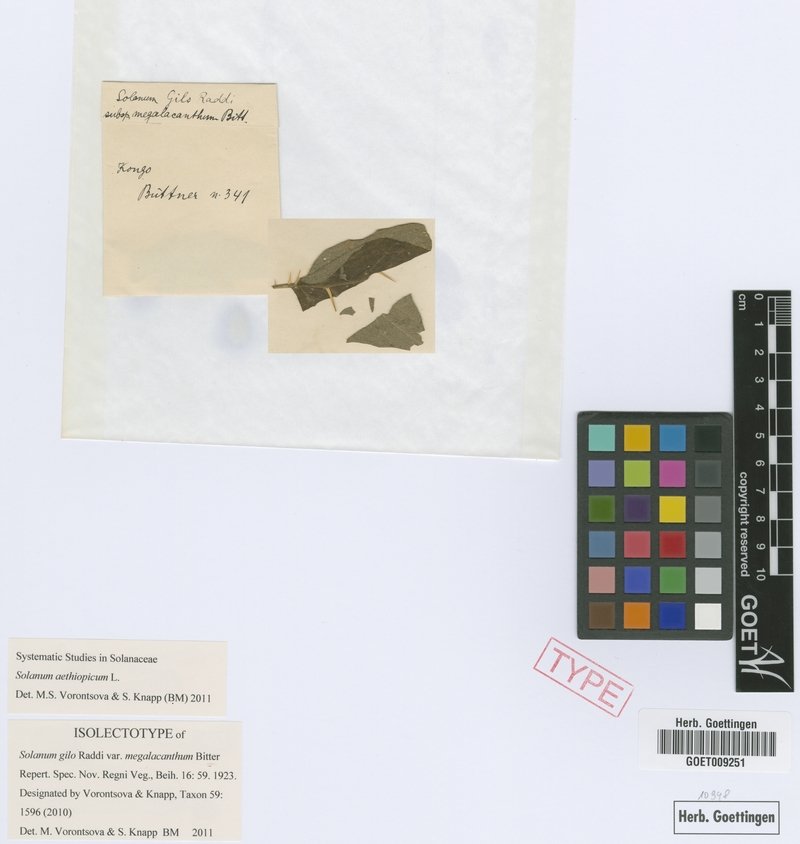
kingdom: Plantae
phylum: Tracheophyta
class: Magnoliopsida
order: Solanales
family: Solanaceae
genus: Solanum
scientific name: Solanum aethiopicum
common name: Gilo
